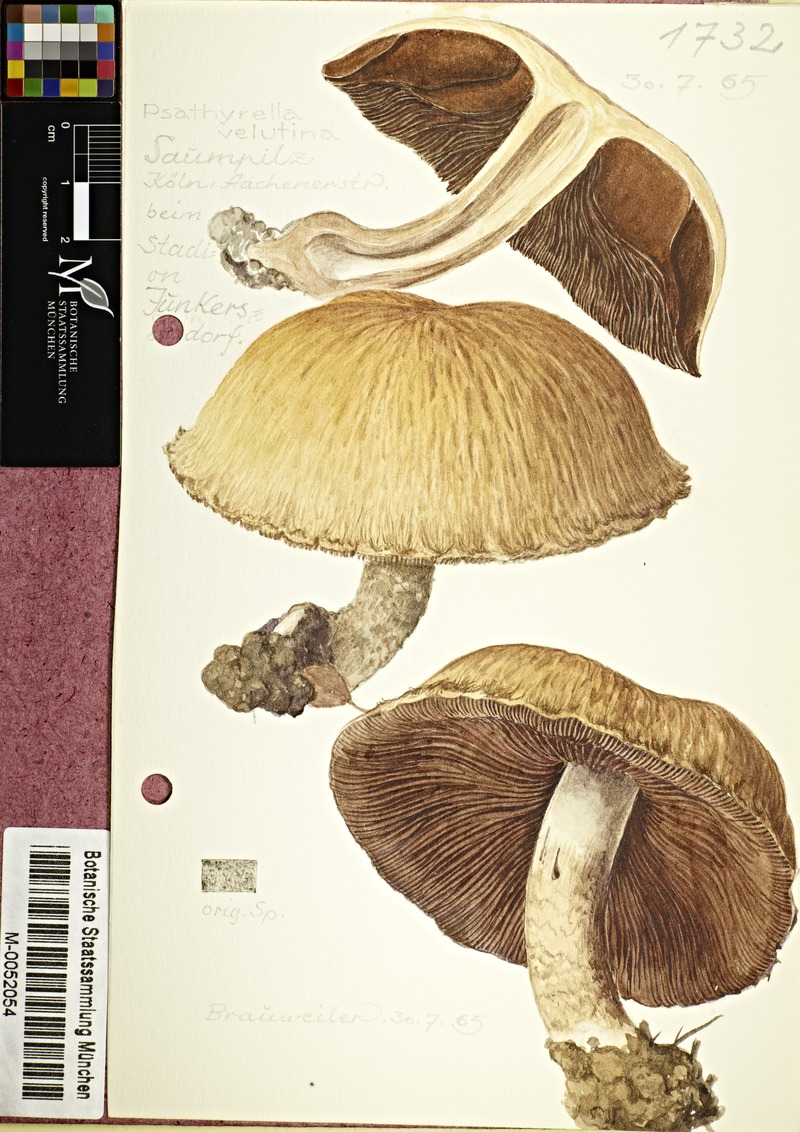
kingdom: Fungi
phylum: Basidiomycota
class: Agaricomycetes
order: Agaricales
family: Psathyrellaceae
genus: Lacrymaria
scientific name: Lacrymaria lacrymabunda
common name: Weeping widow
